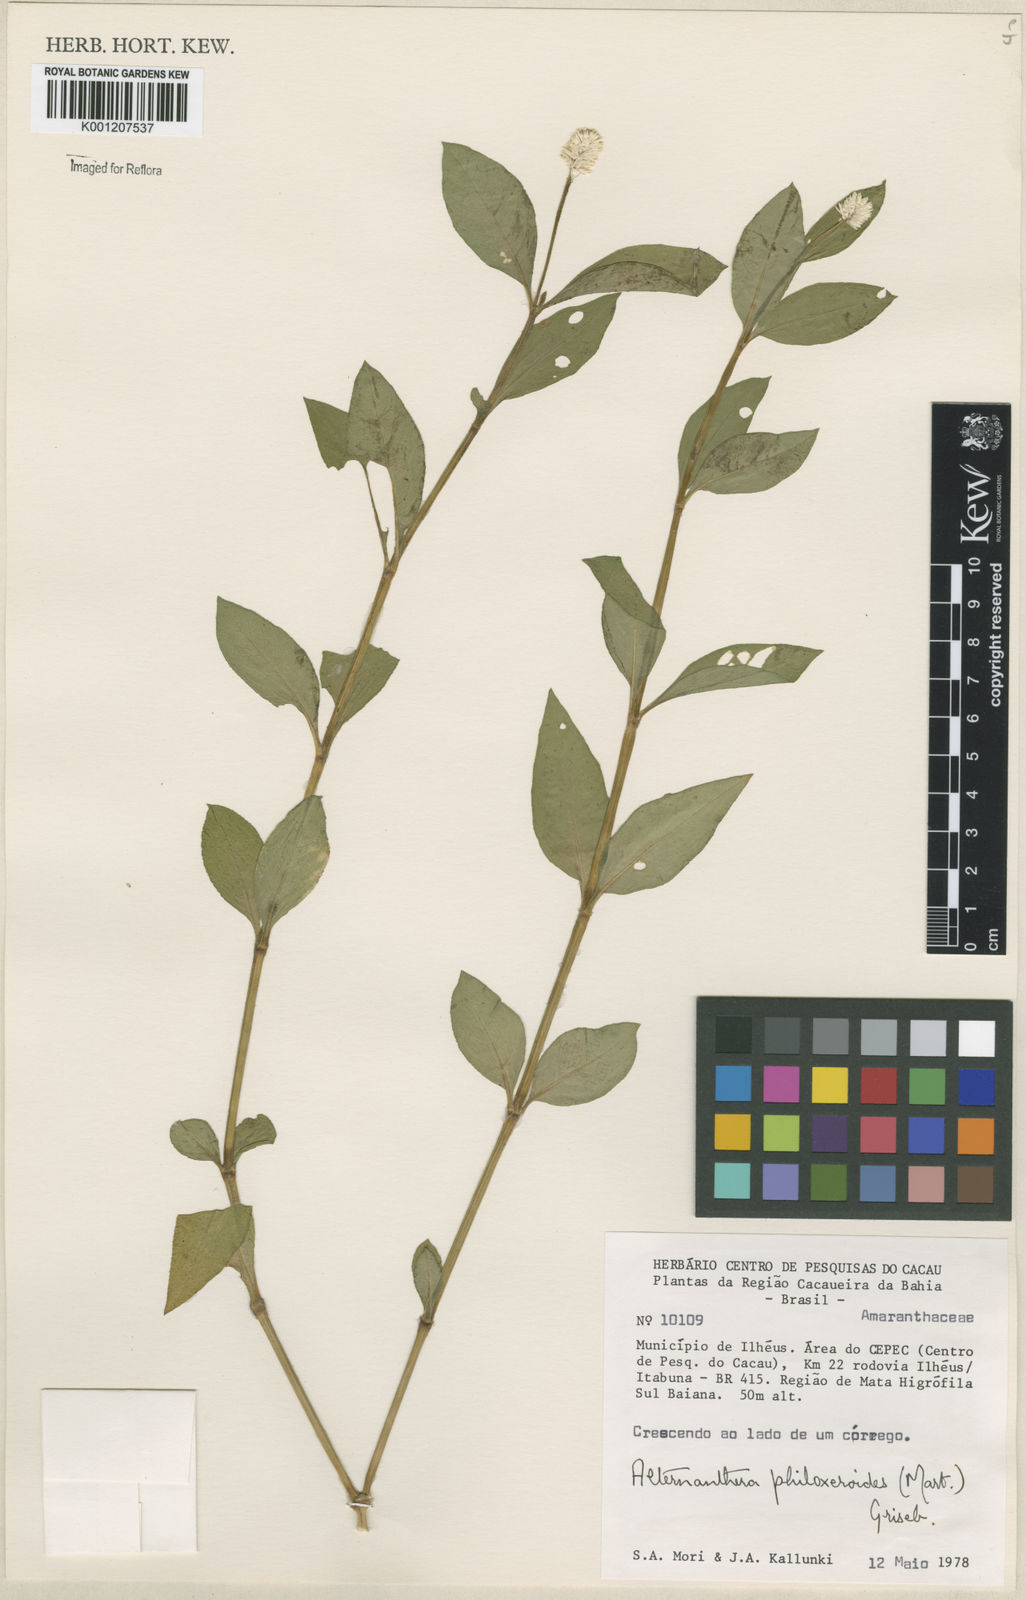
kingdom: Plantae
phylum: Tracheophyta
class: Magnoliopsida
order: Caryophyllales
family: Amaranthaceae
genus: Alternanthera
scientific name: Alternanthera philoxeroides
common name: Alligatorweed
